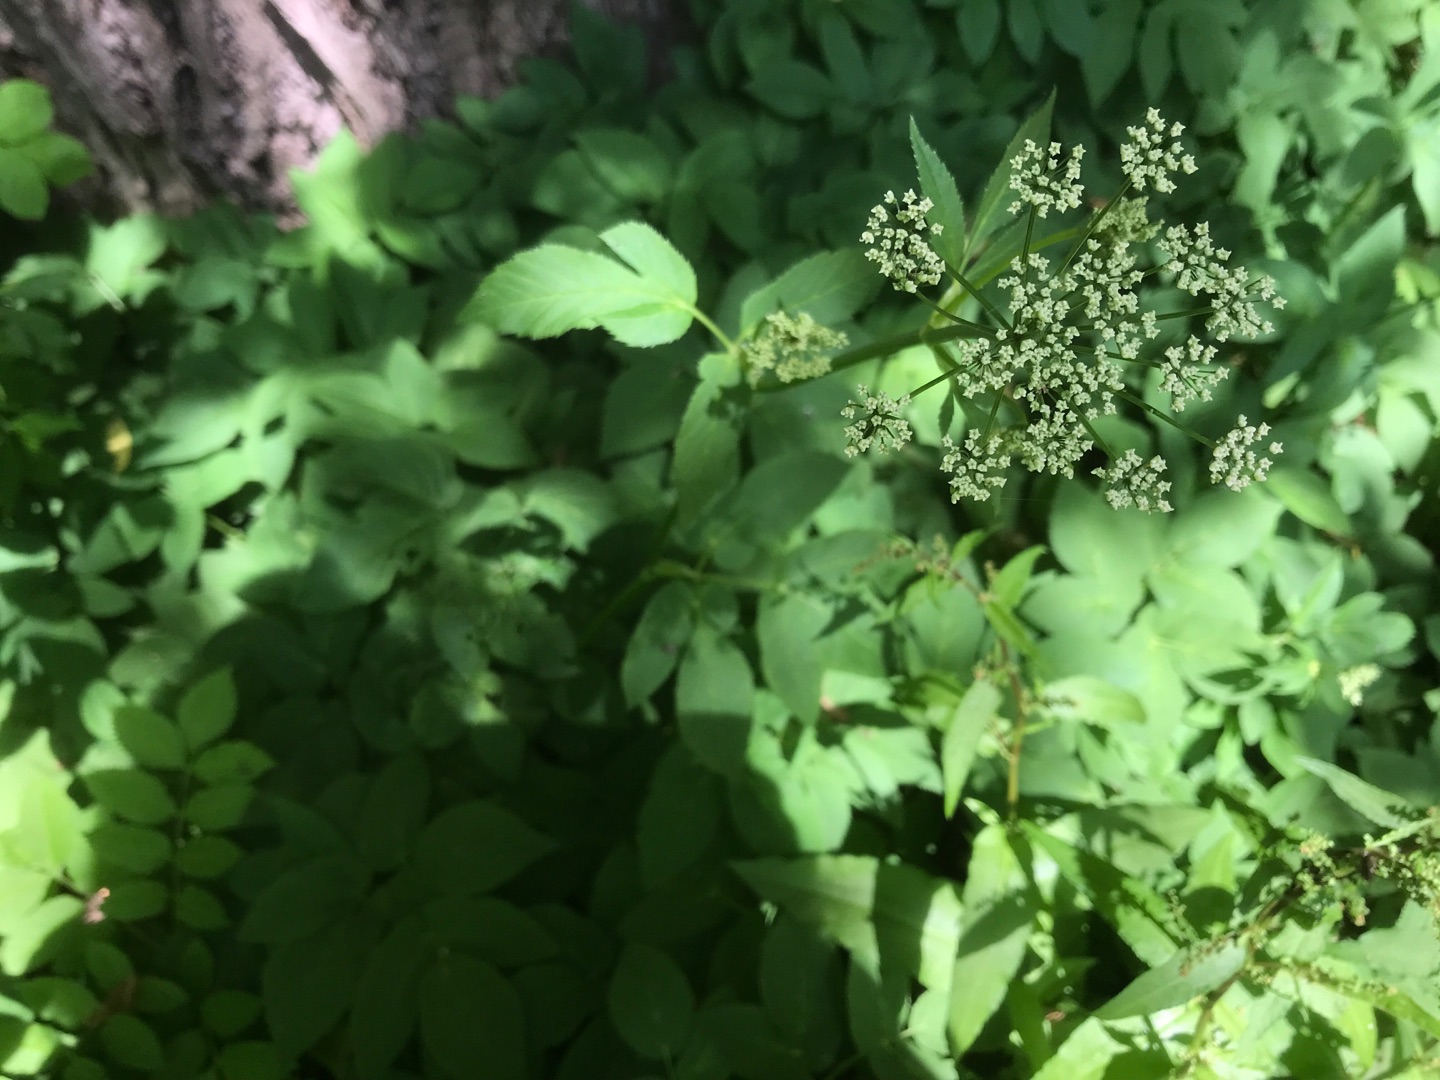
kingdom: Plantae
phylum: Tracheophyta
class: Magnoliopsida
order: Apiales
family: Apiaceae
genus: Aegopodium
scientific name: Aegopodium podagraria
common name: Skvalderkål
